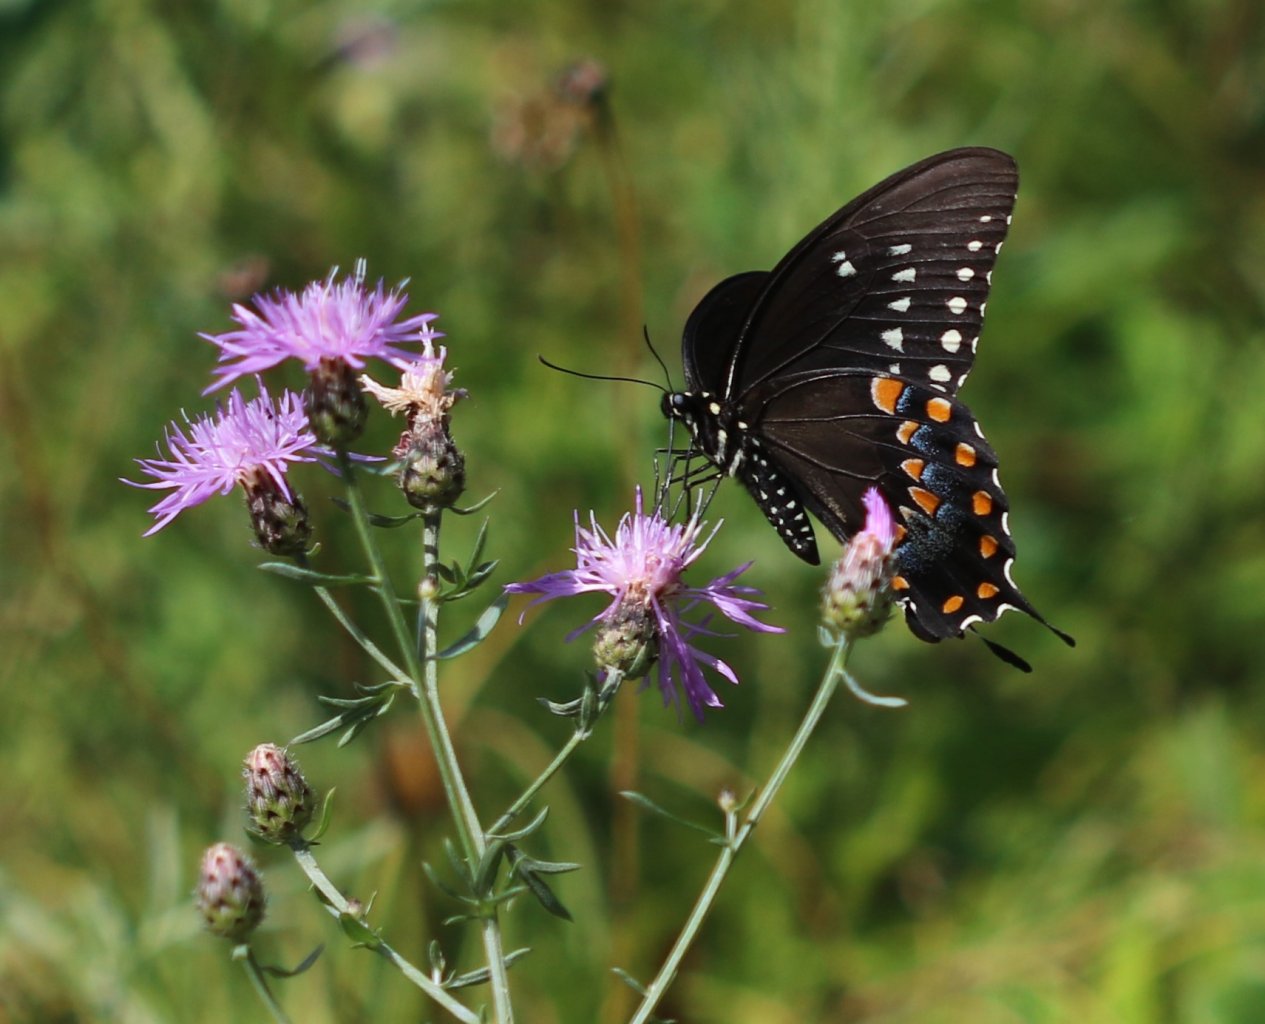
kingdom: Animalia
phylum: Arthropoda
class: Insecta
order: Lepidoptera
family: Papilionidae
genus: Pterourus
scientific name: Pterourus troilus
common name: Spicebush Swallowtail
